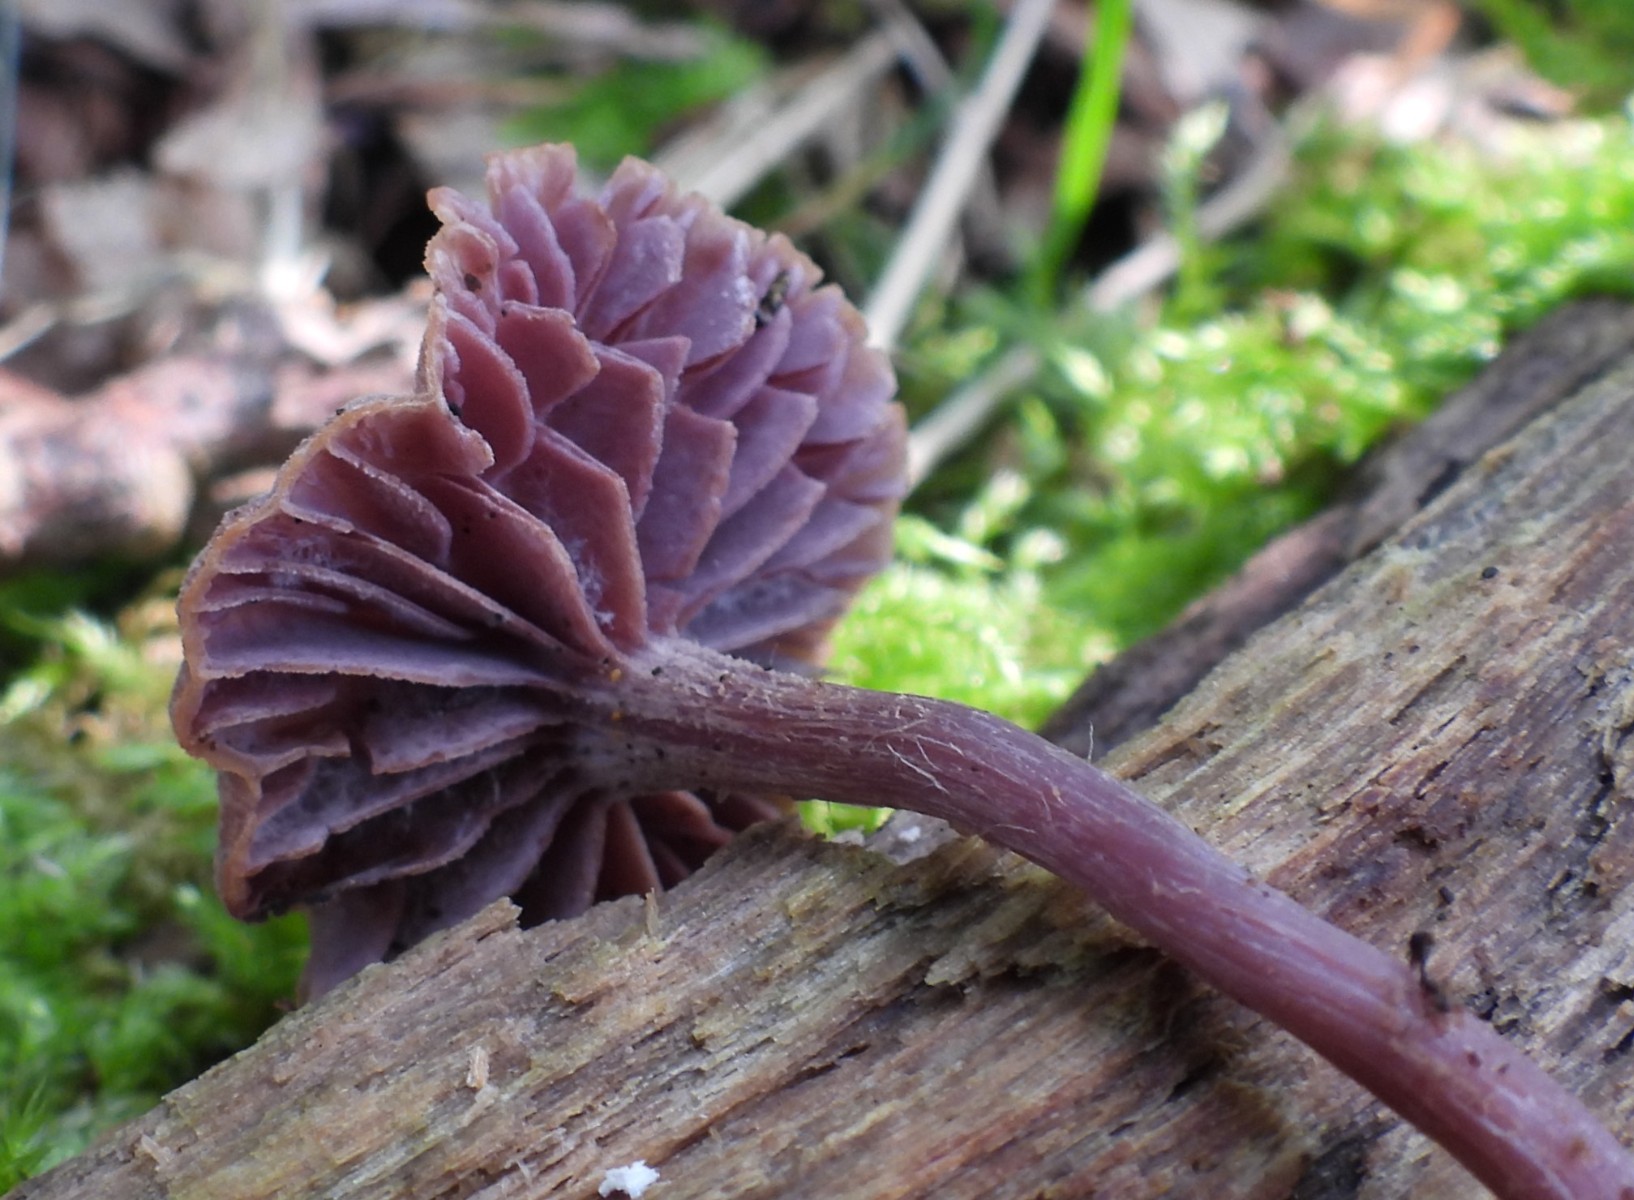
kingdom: Fungi
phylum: Basidiomycota
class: Agaricomycetes
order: Agaricales
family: Hydnangiaceae
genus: Laccaria
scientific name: Laccaria amethystina
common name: violet ametysthat
